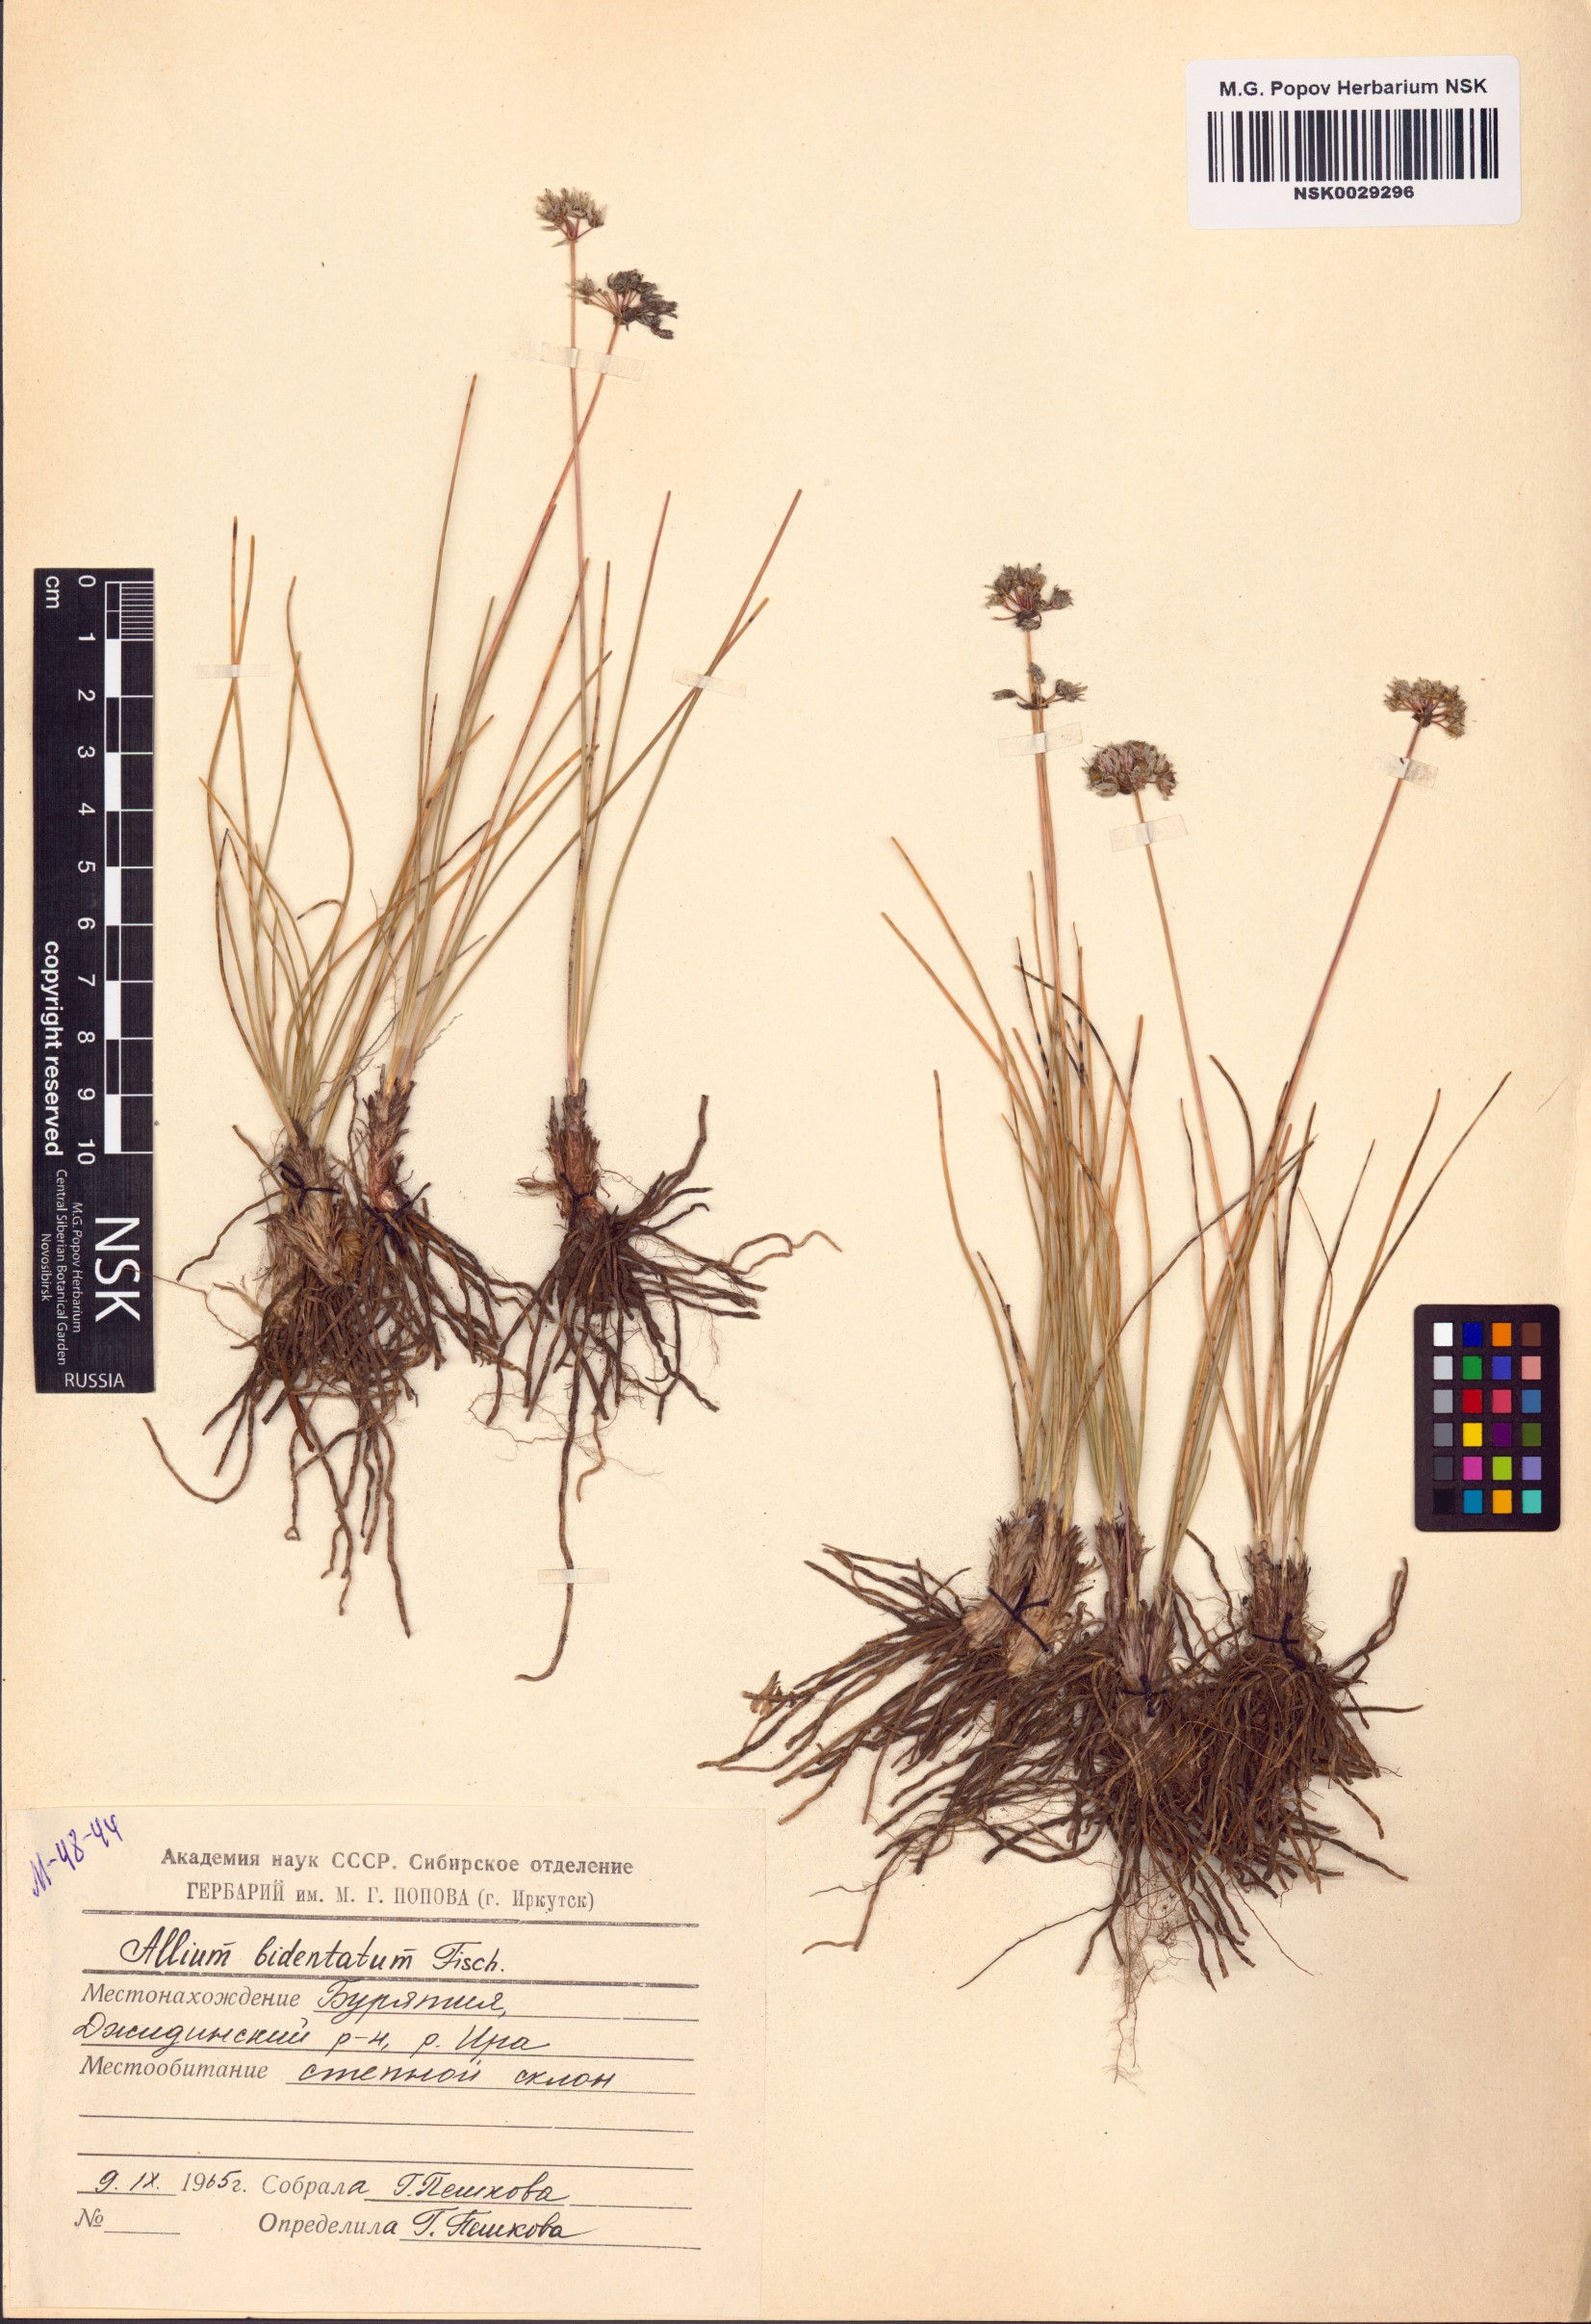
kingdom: Plantae
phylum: Tracheophyta
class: Liliopsida
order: Asparagales
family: Amaryllidaceae
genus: Allium
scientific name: Allium bidentatum
